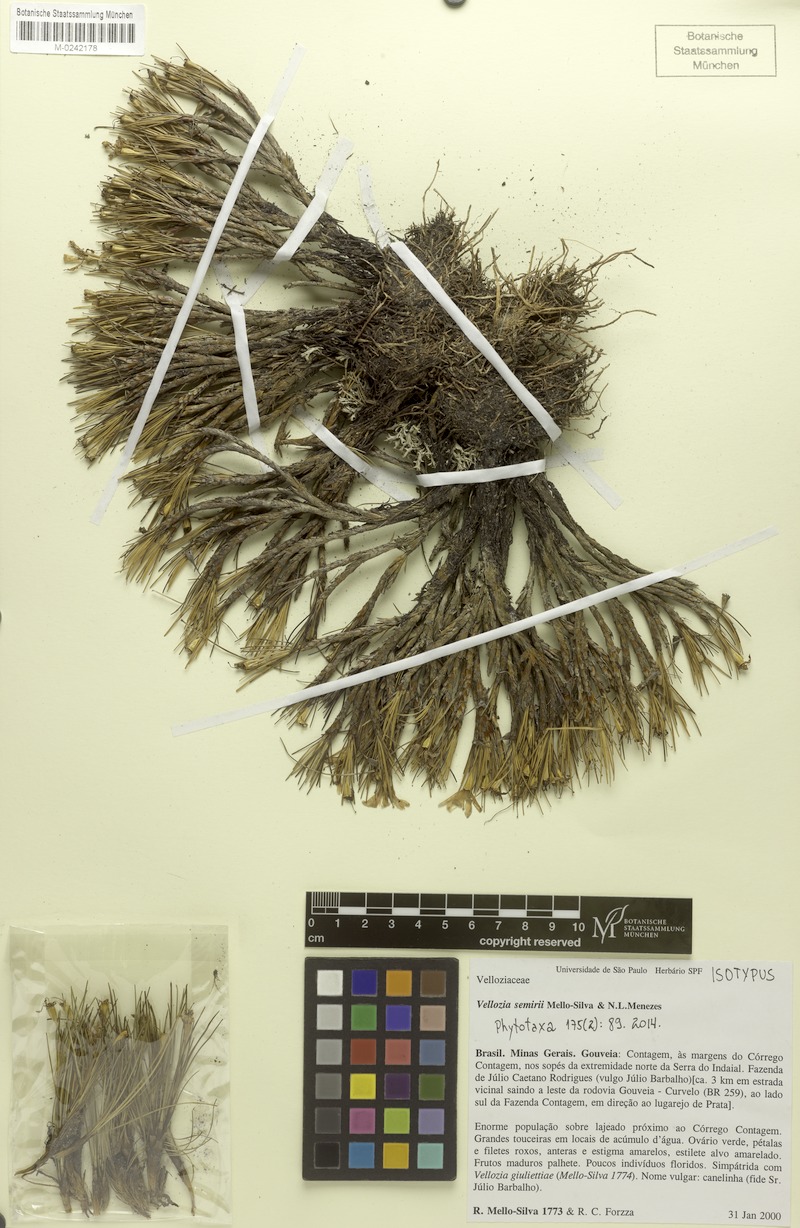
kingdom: Plantae
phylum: Tracheophyta
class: Liliopsida
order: Pandanales
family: Velloziaceae
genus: Vellozia
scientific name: Vellozia semirii
